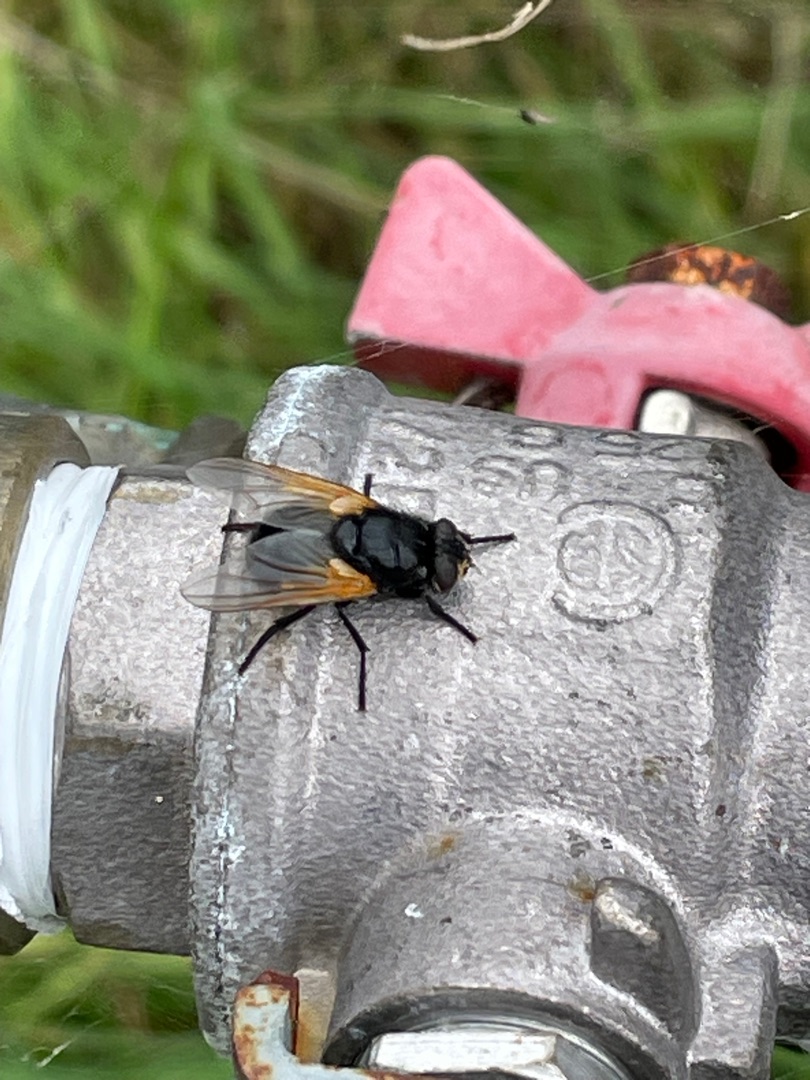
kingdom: Animalia
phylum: Arthropoda
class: Insecta
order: Diptera
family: Muscidae
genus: Mesembrina
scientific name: Mesembrina meridiana
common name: Gulvinget flue
